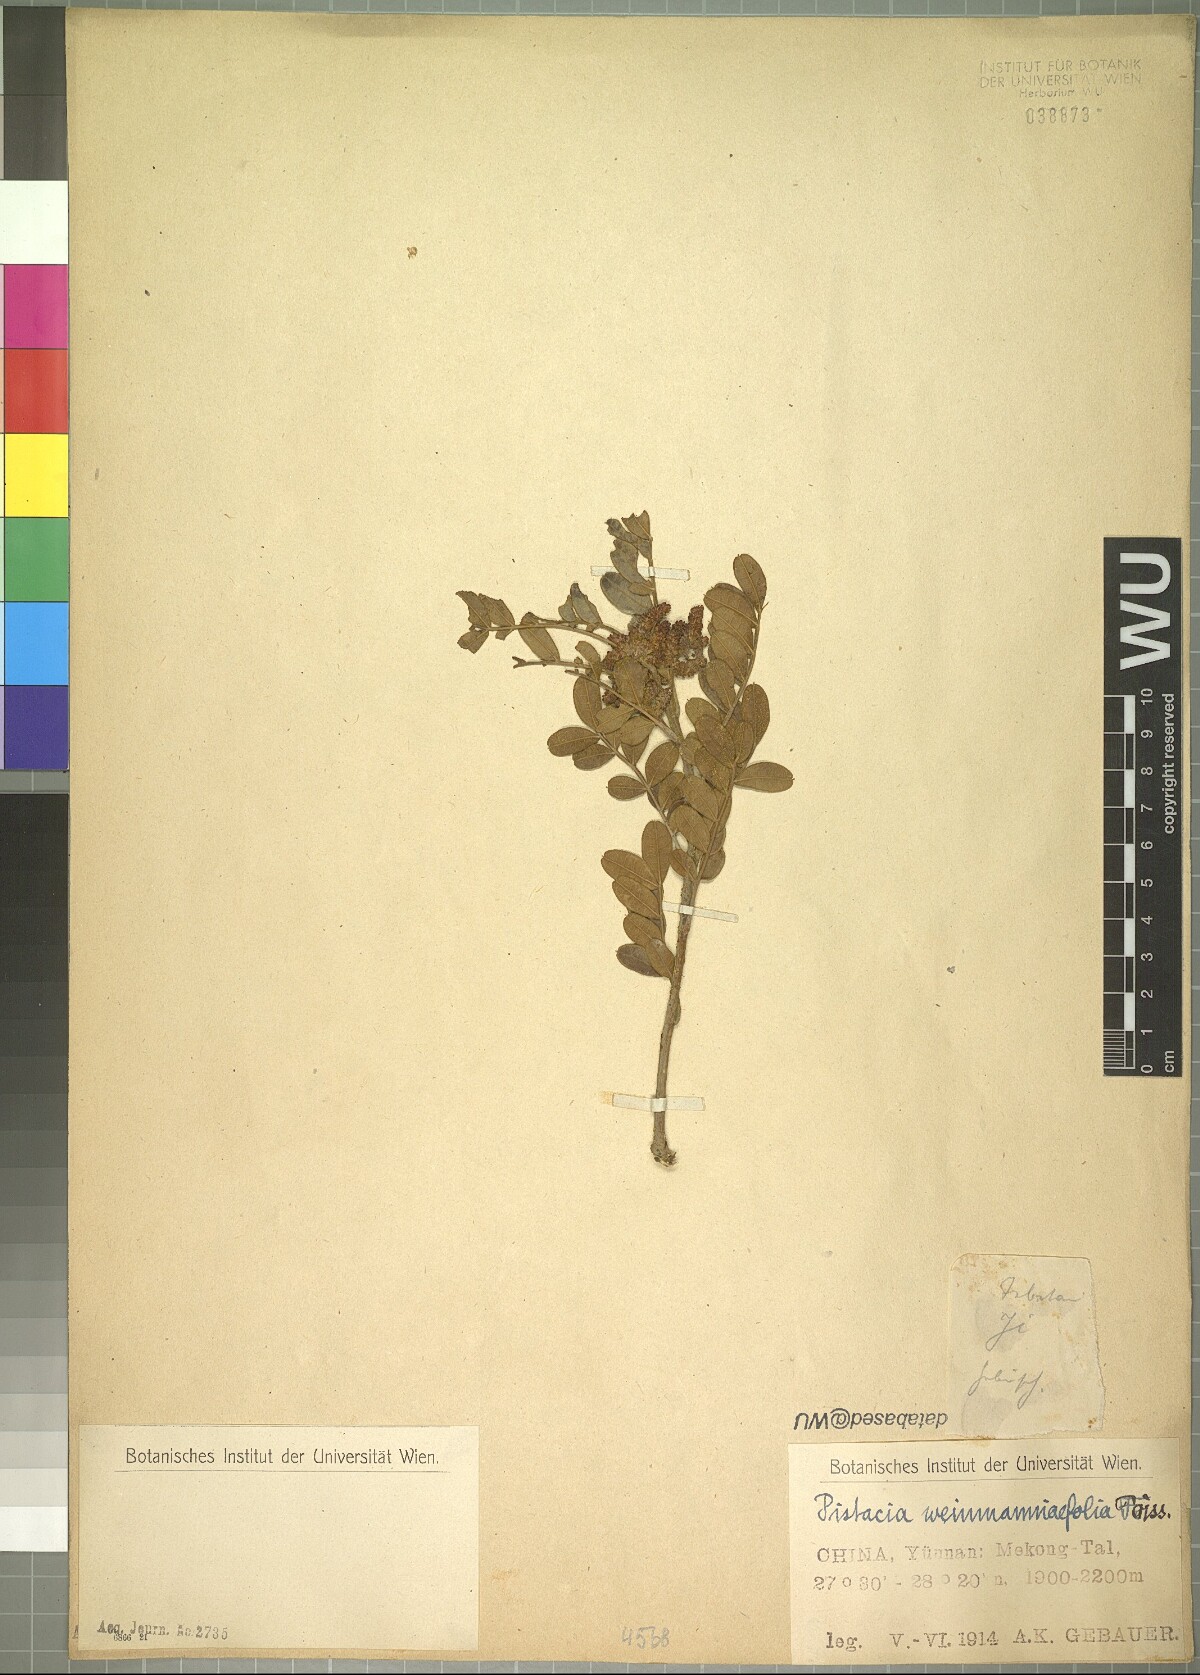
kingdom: Plantae
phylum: Tracheophyta
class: Magnoliopsida
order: Sapindales
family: Anacardiaceae
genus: Pistacia
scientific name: Pistacia weinmannifolia
